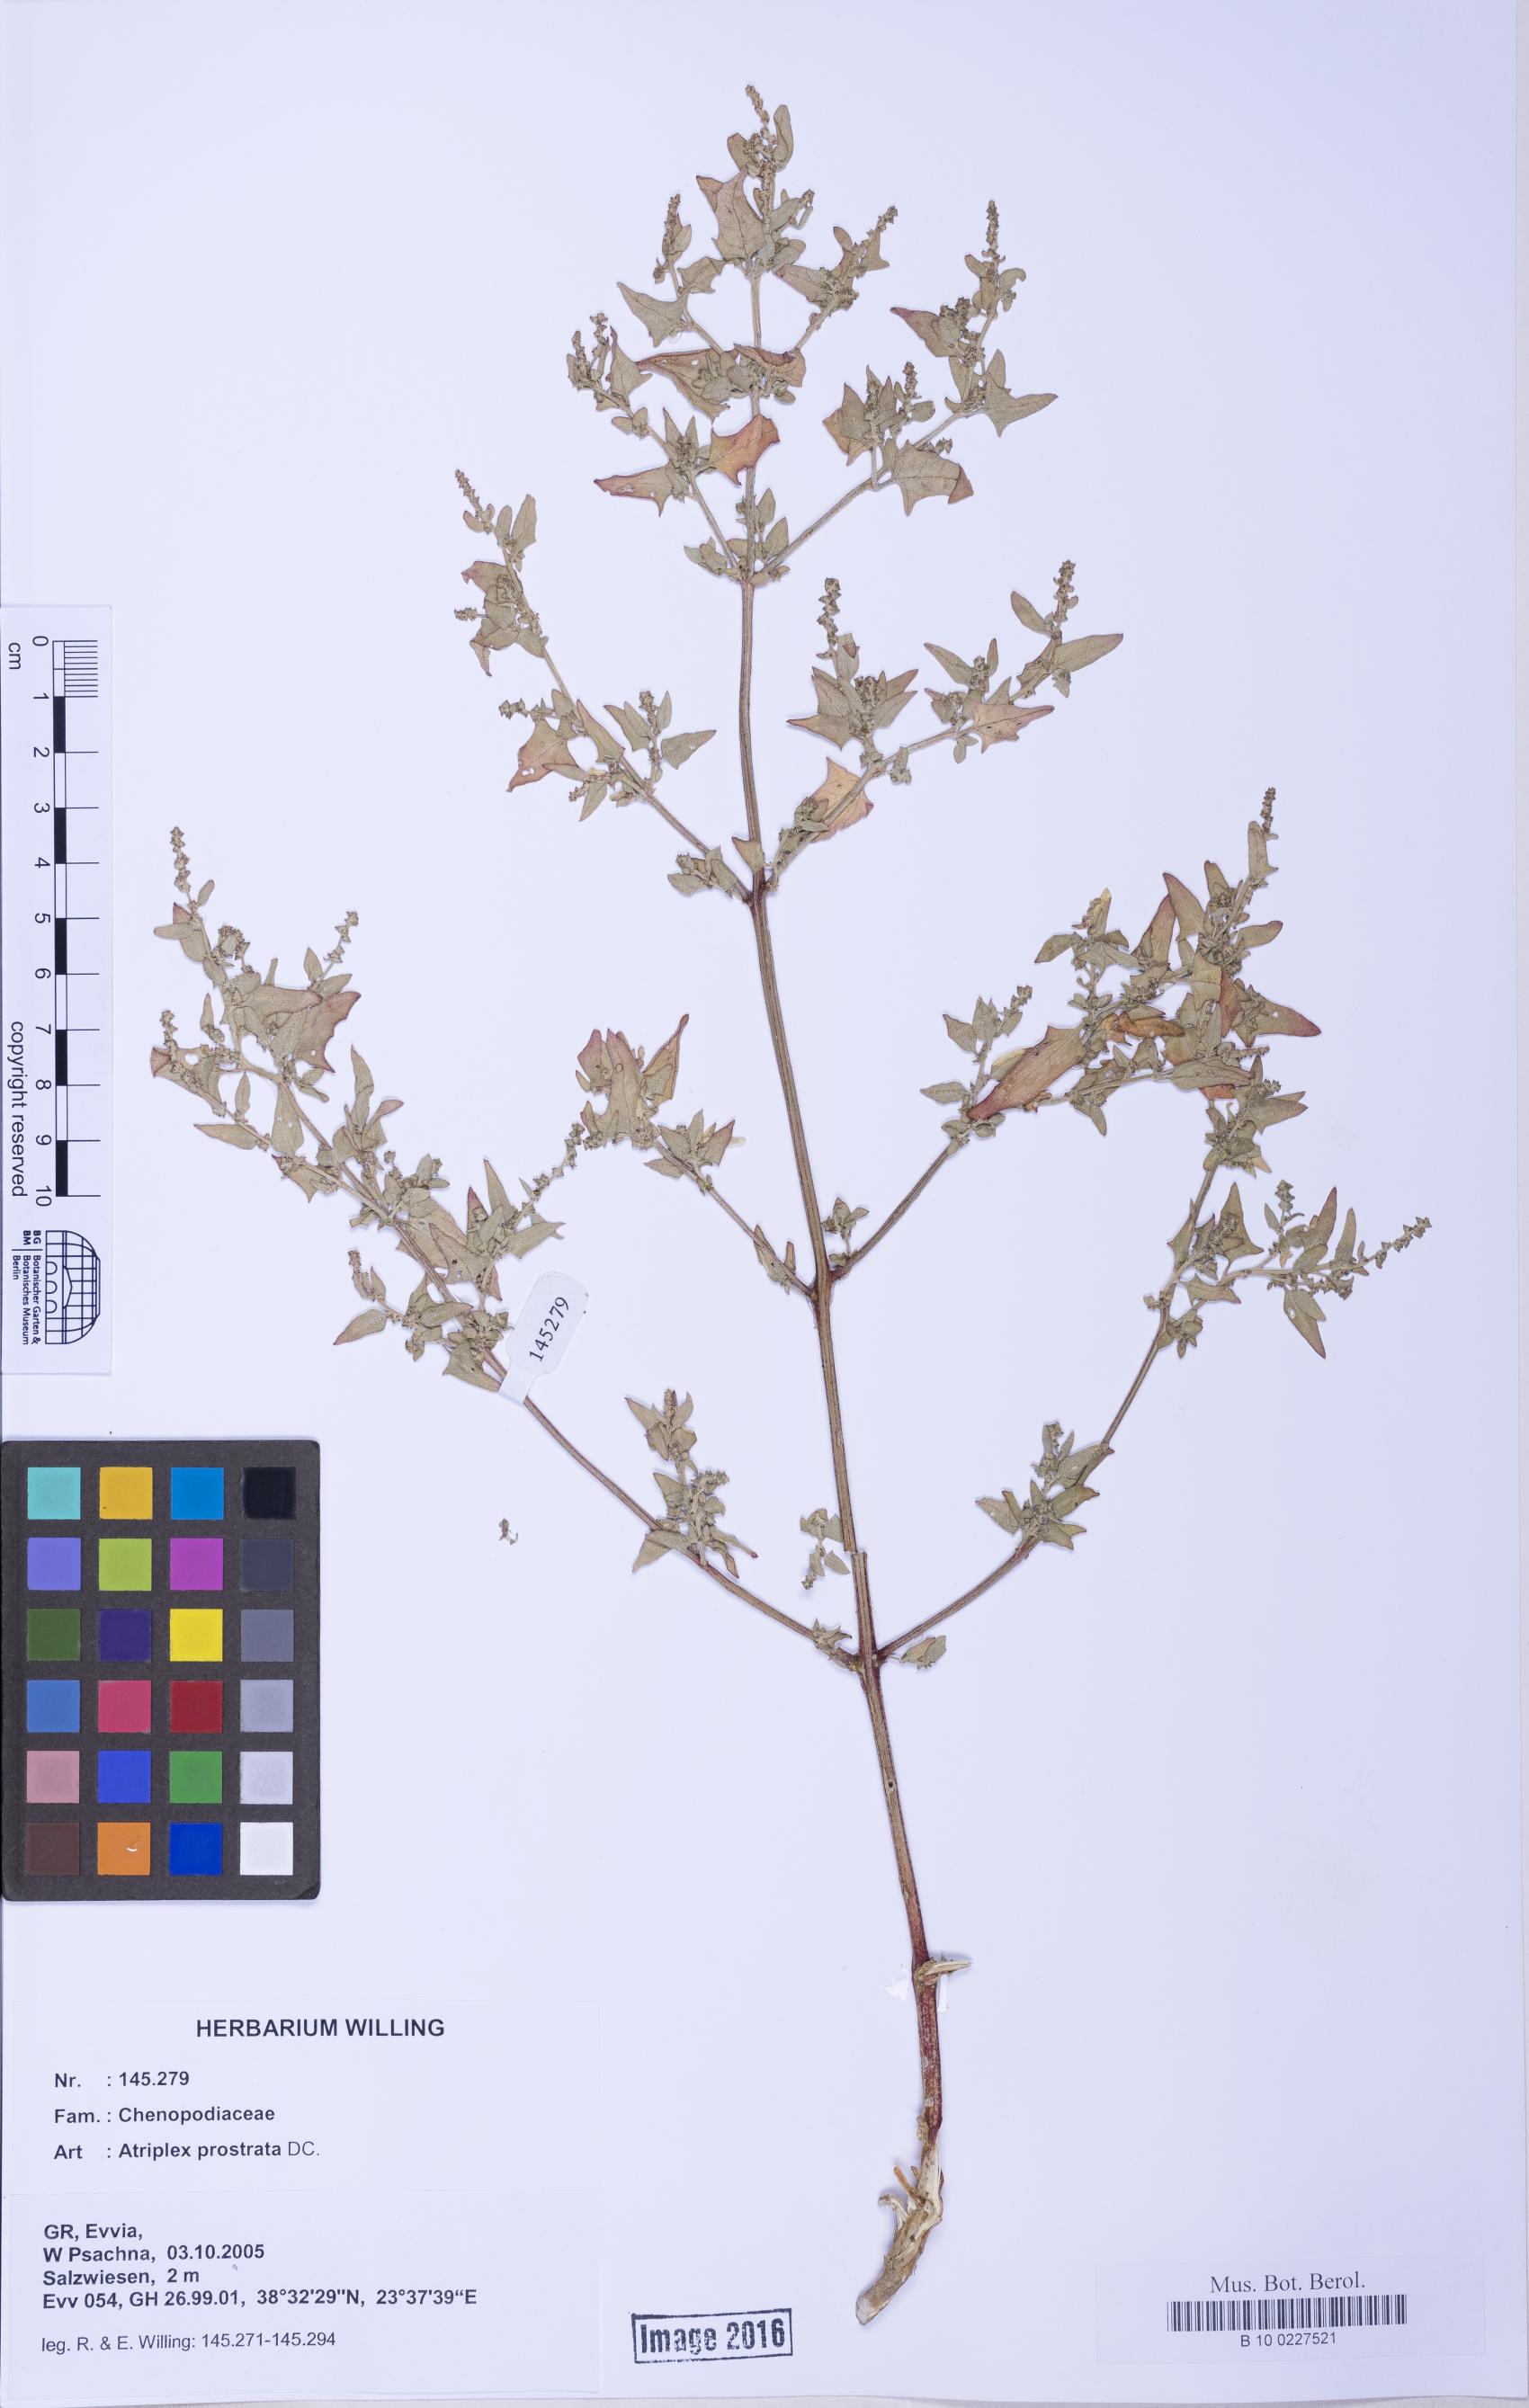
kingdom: Plantae
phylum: Tracheophyta
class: Magnoliopsida
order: Caryophyllales
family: Amaranthaceae
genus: Atriplex
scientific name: Atriplex prostrata
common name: Spear-leaved orache
